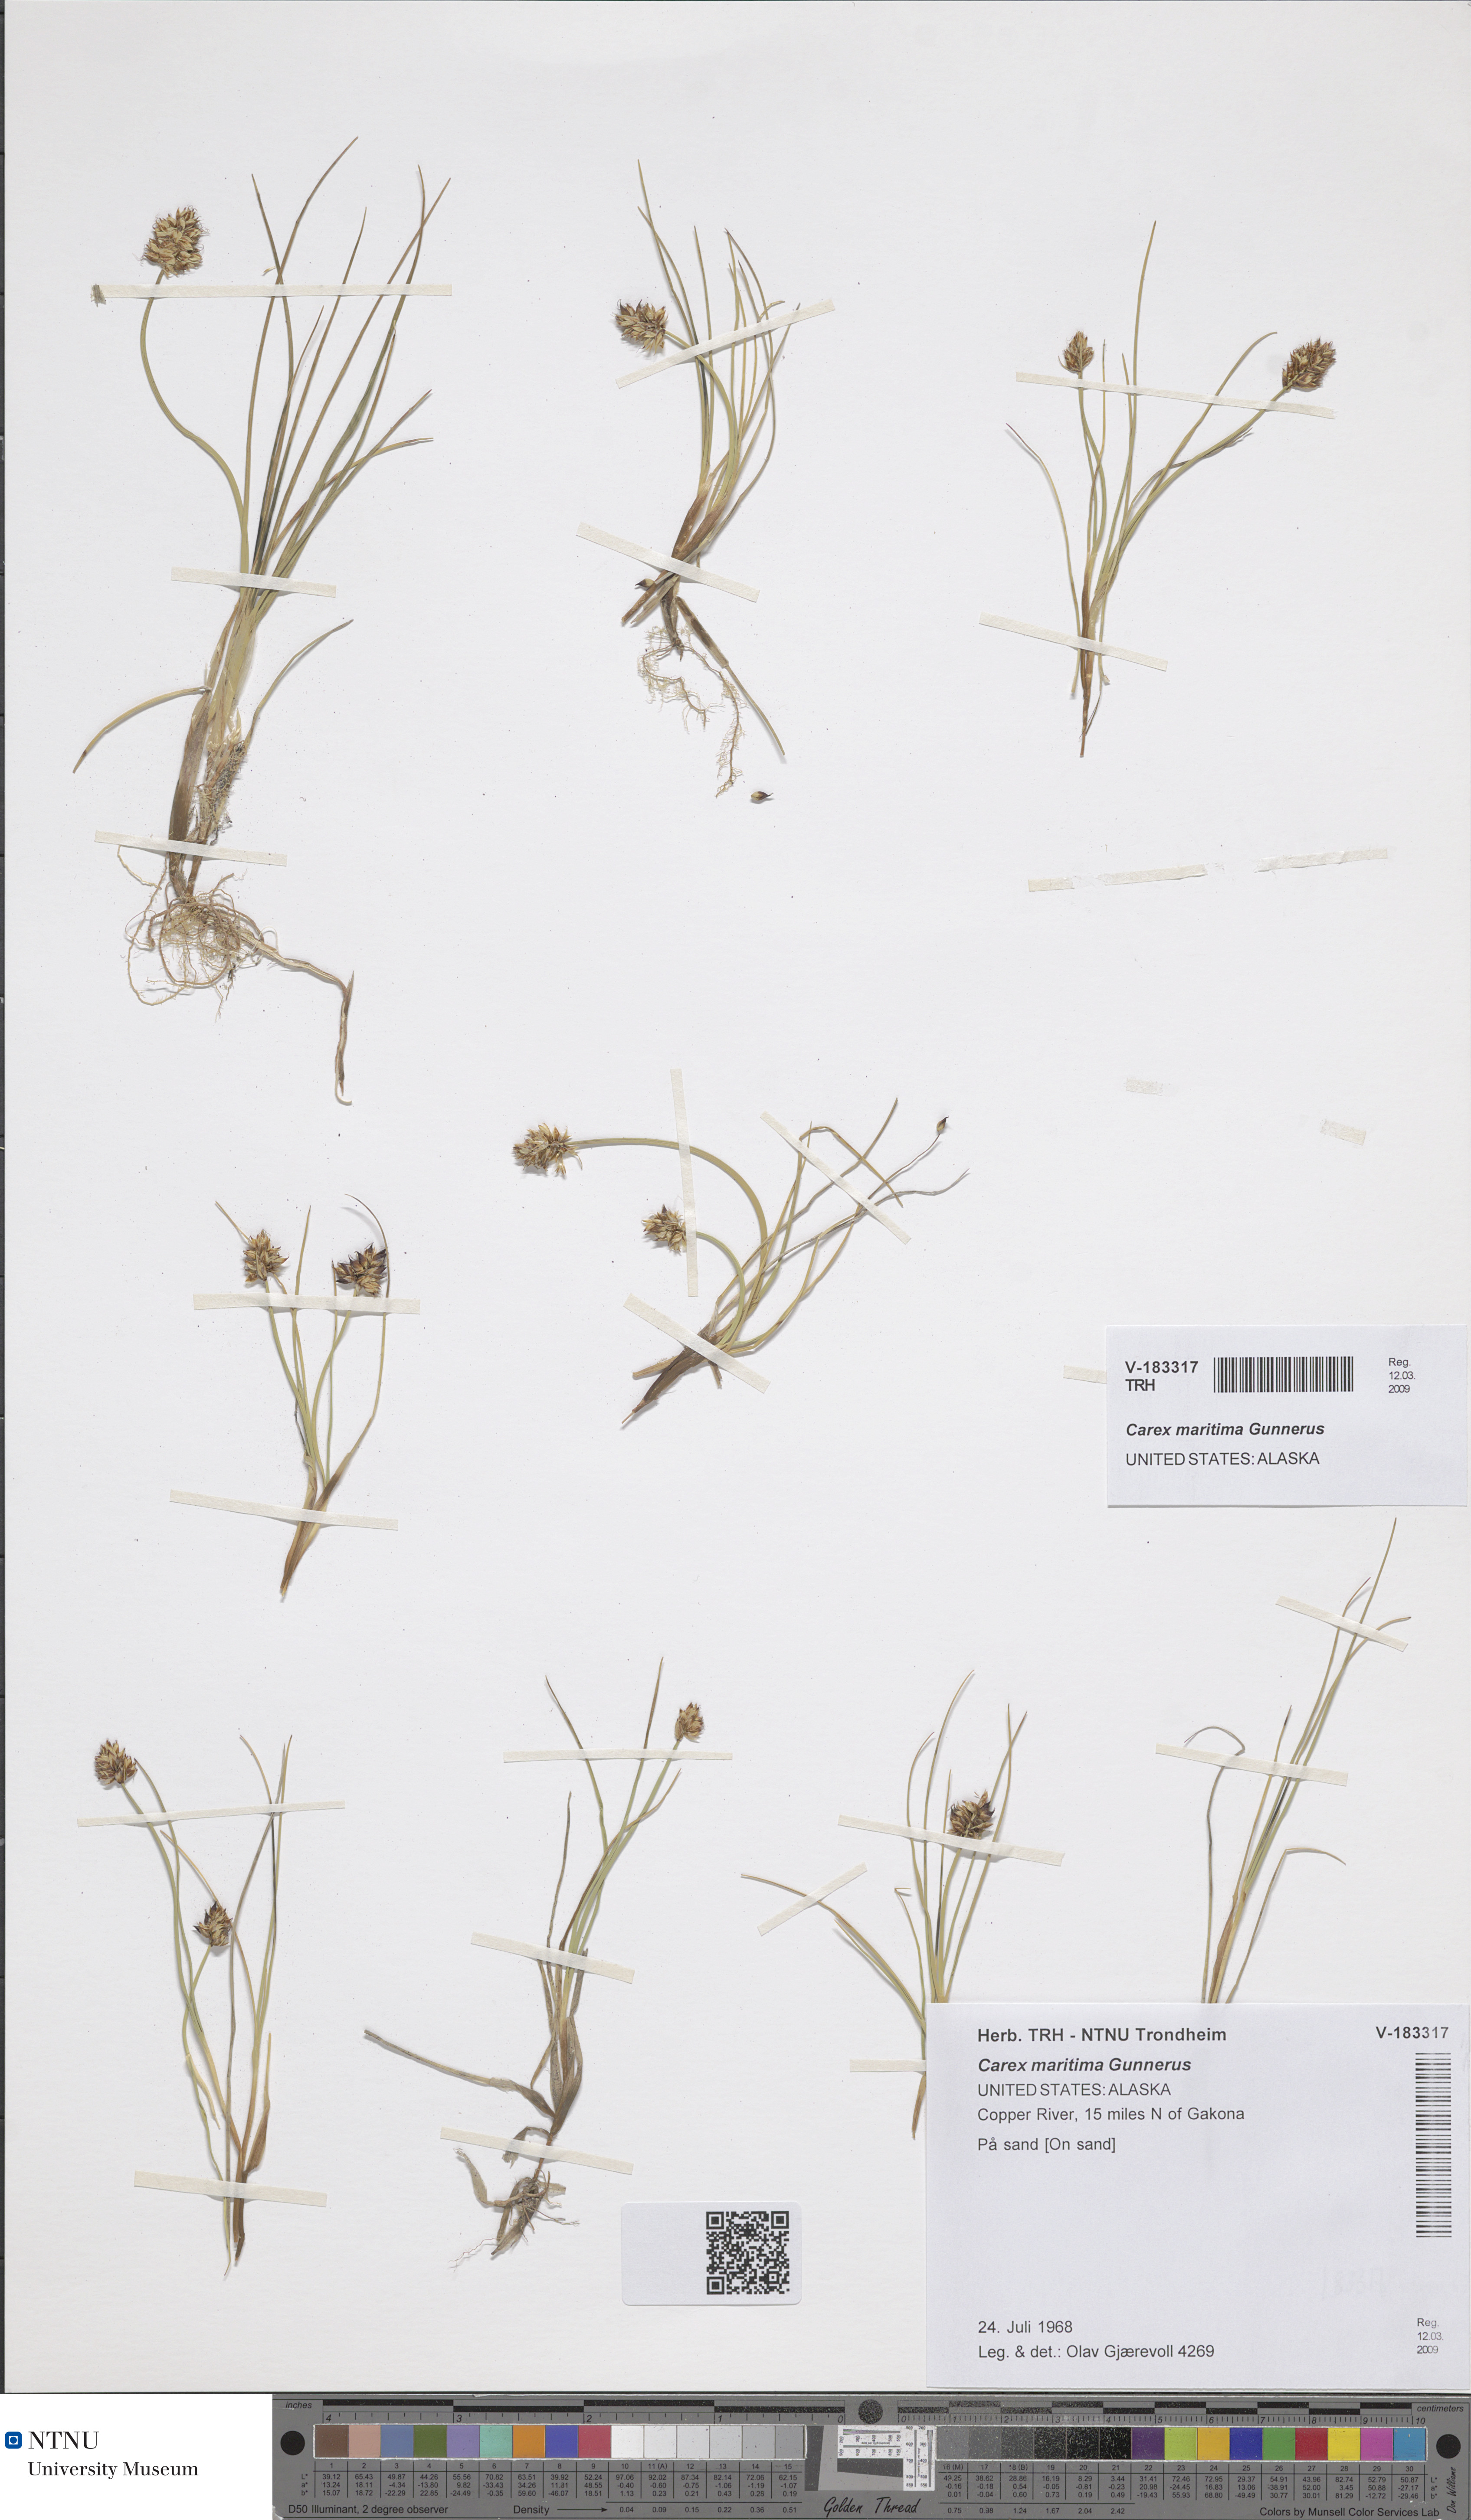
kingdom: Plantae
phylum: Tracheophyta
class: Liliopsida
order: Poales
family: Cyperaceae
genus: Carex
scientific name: Carex maritima
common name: Curved sedge
